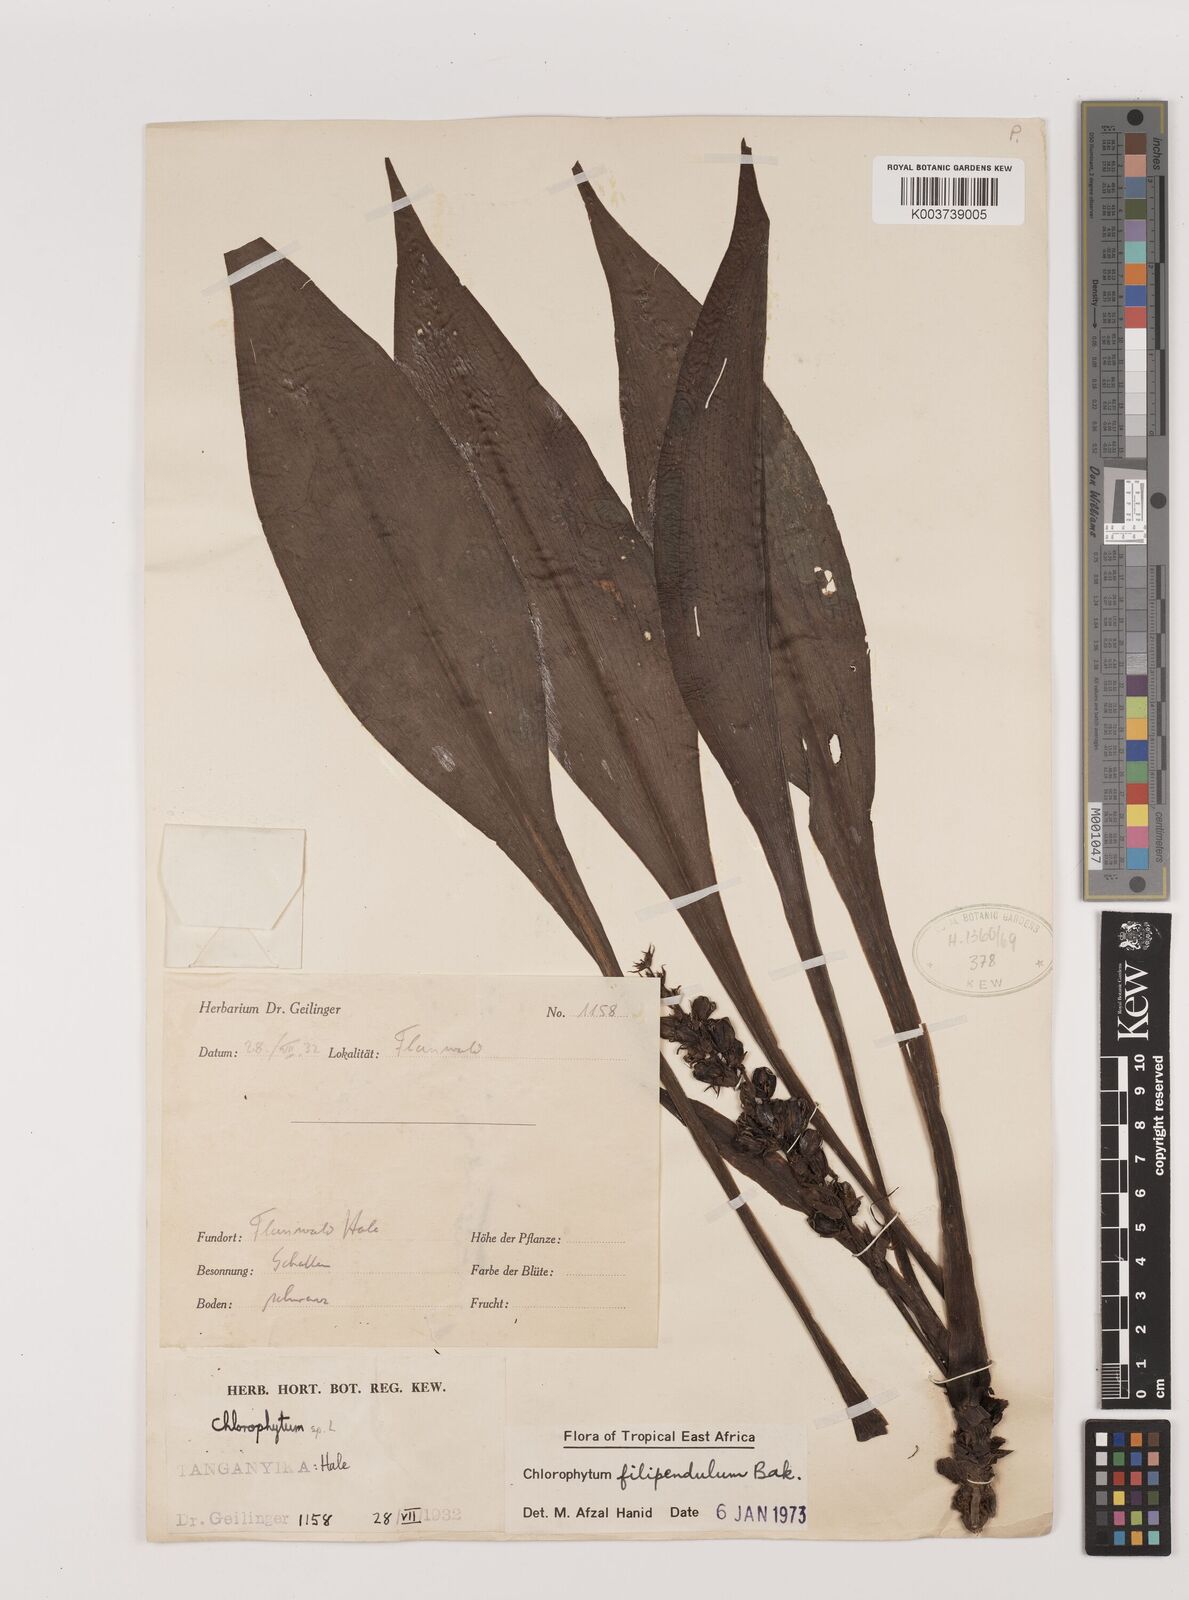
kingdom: Plantae
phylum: Tracheophyta
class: Liliopsida
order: Asparagales
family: Asparagaceae
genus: Chlorophytum
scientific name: Chlorophytum filipendulum
